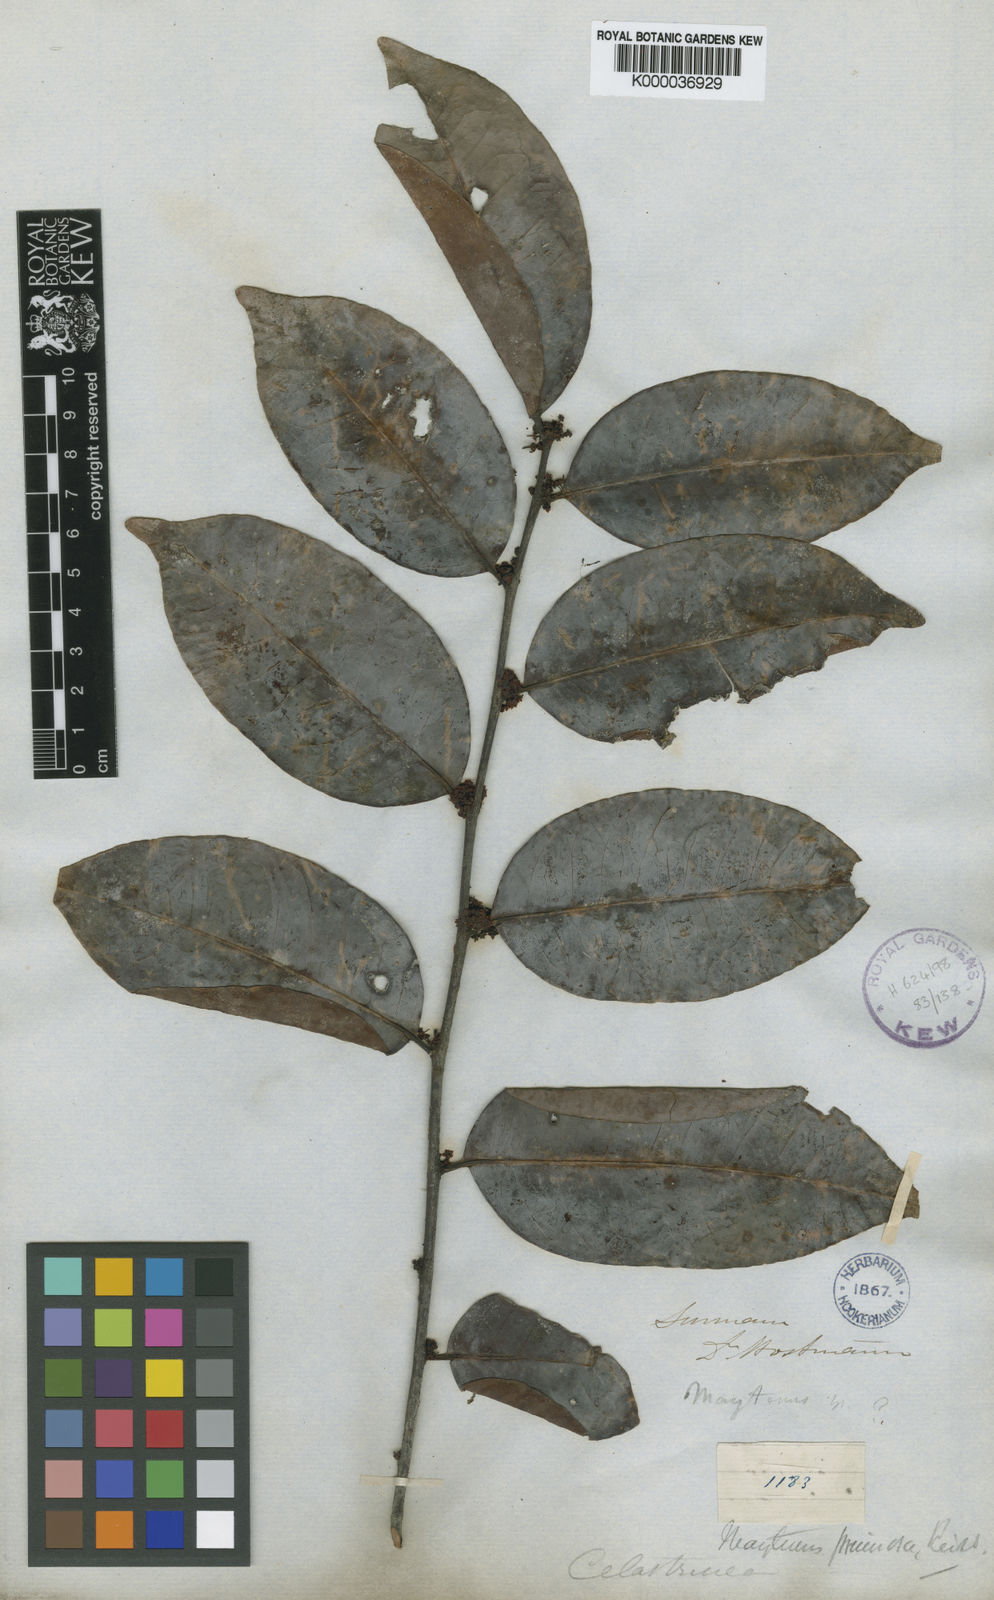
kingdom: Plantae
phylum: Tracheophyta
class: Magnoliopsida
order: Celastrales
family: Celastraceae
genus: Maytenus
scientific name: Maytenus
